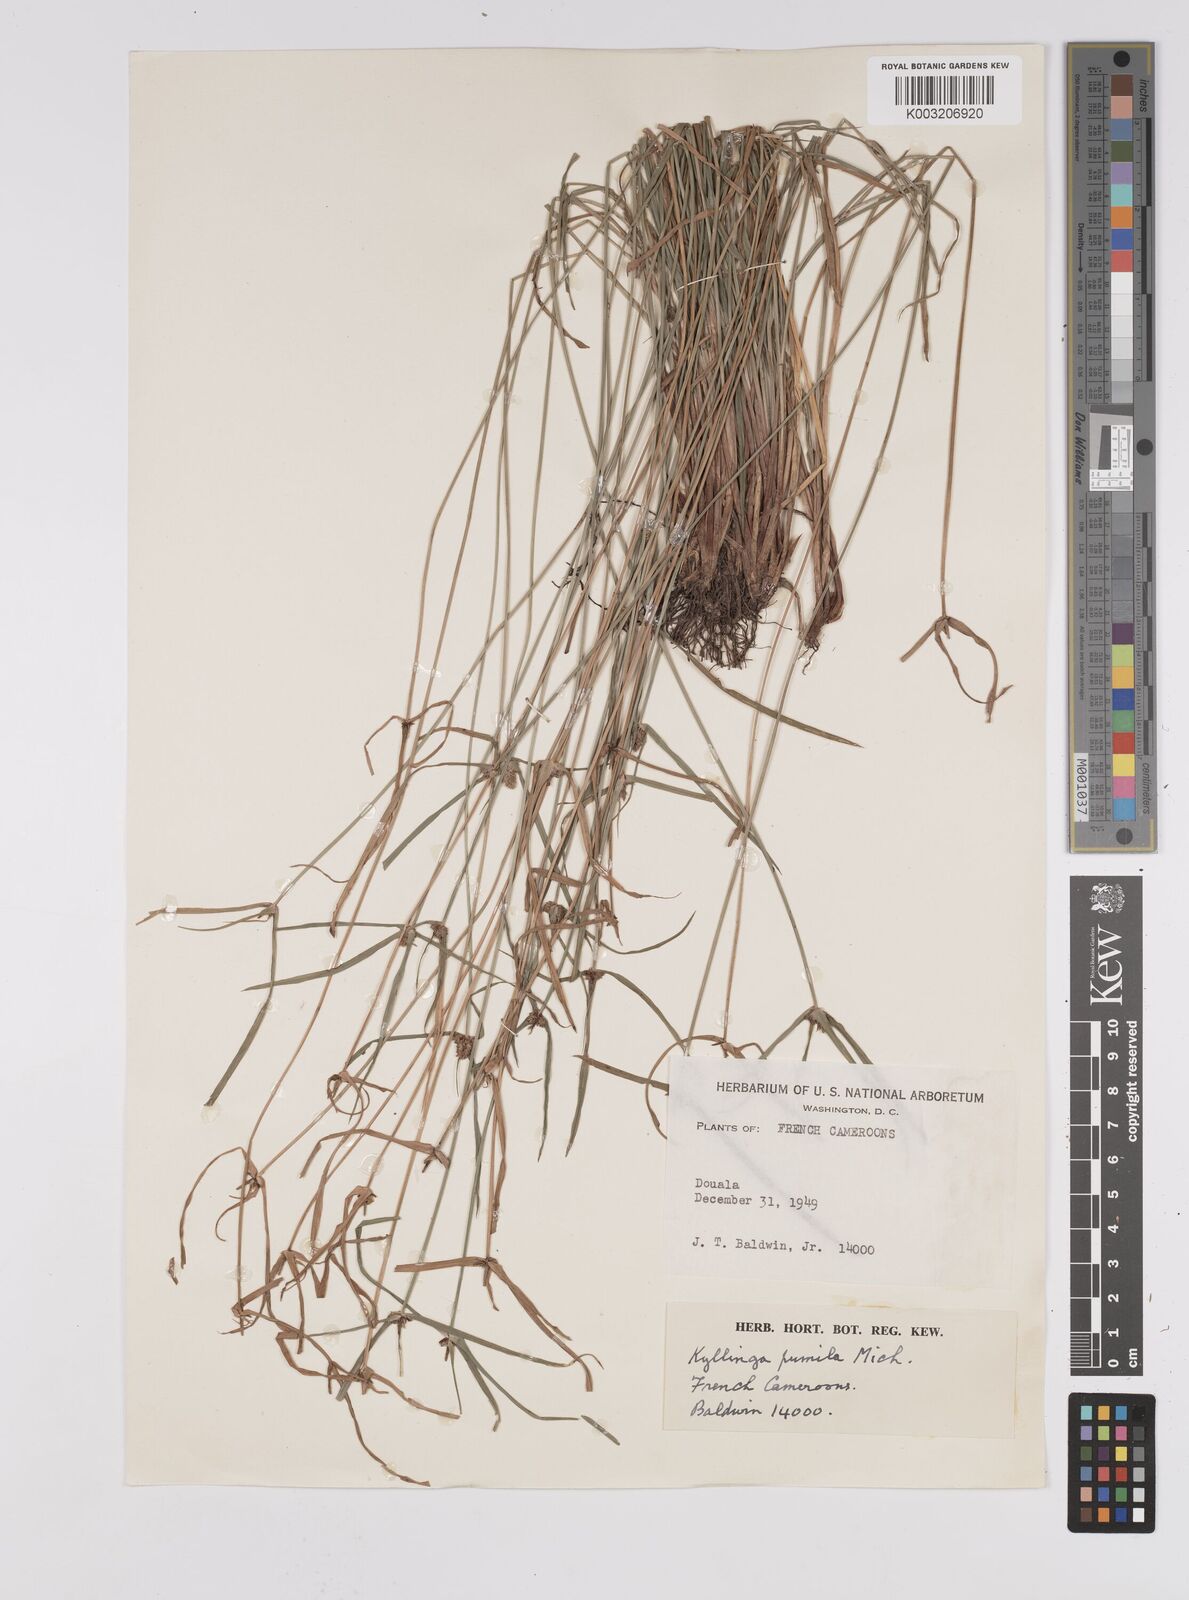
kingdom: Plantae
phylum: Tracheophyta
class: Liliopsida
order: Poales
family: Cyperaceae
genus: Cyperus
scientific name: Cyperus hortensis
